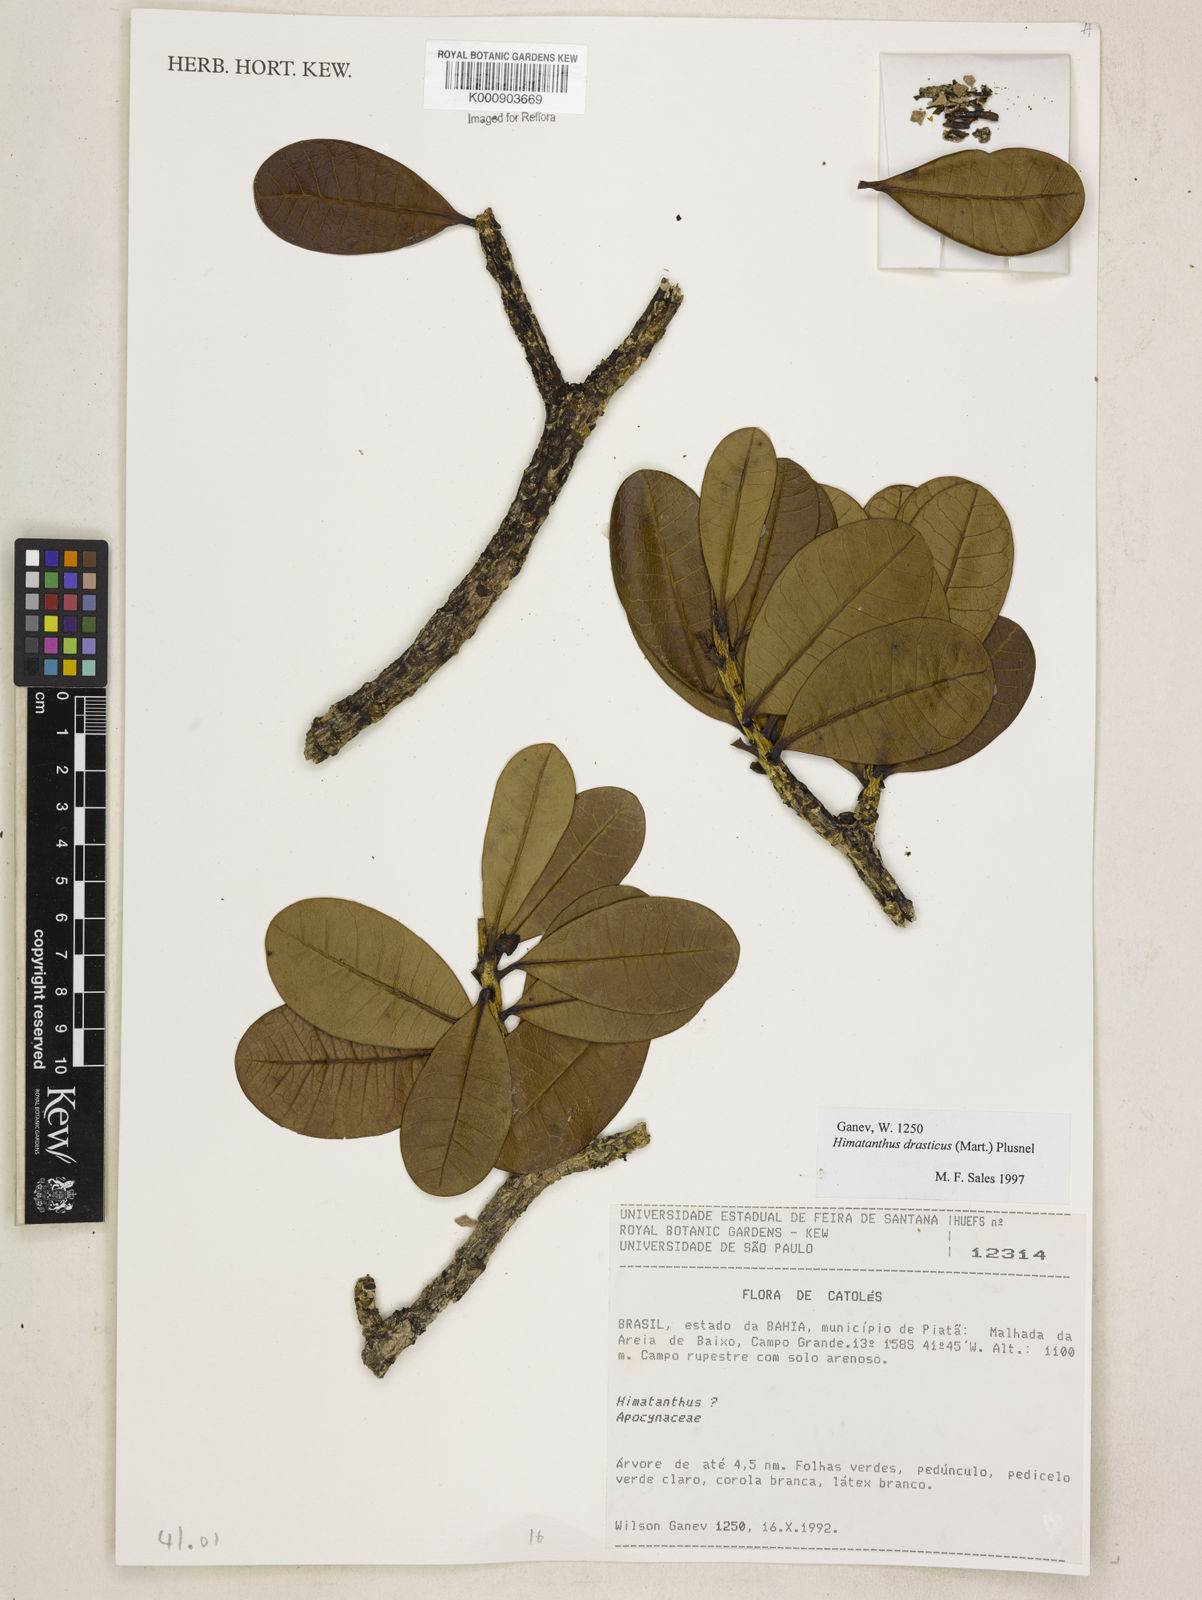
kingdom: Plantae
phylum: Tracheophyta
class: Magnoliopsida
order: Gentianales
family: Apocynaceae
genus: Himatanthus
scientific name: Himatanthus drasticus
